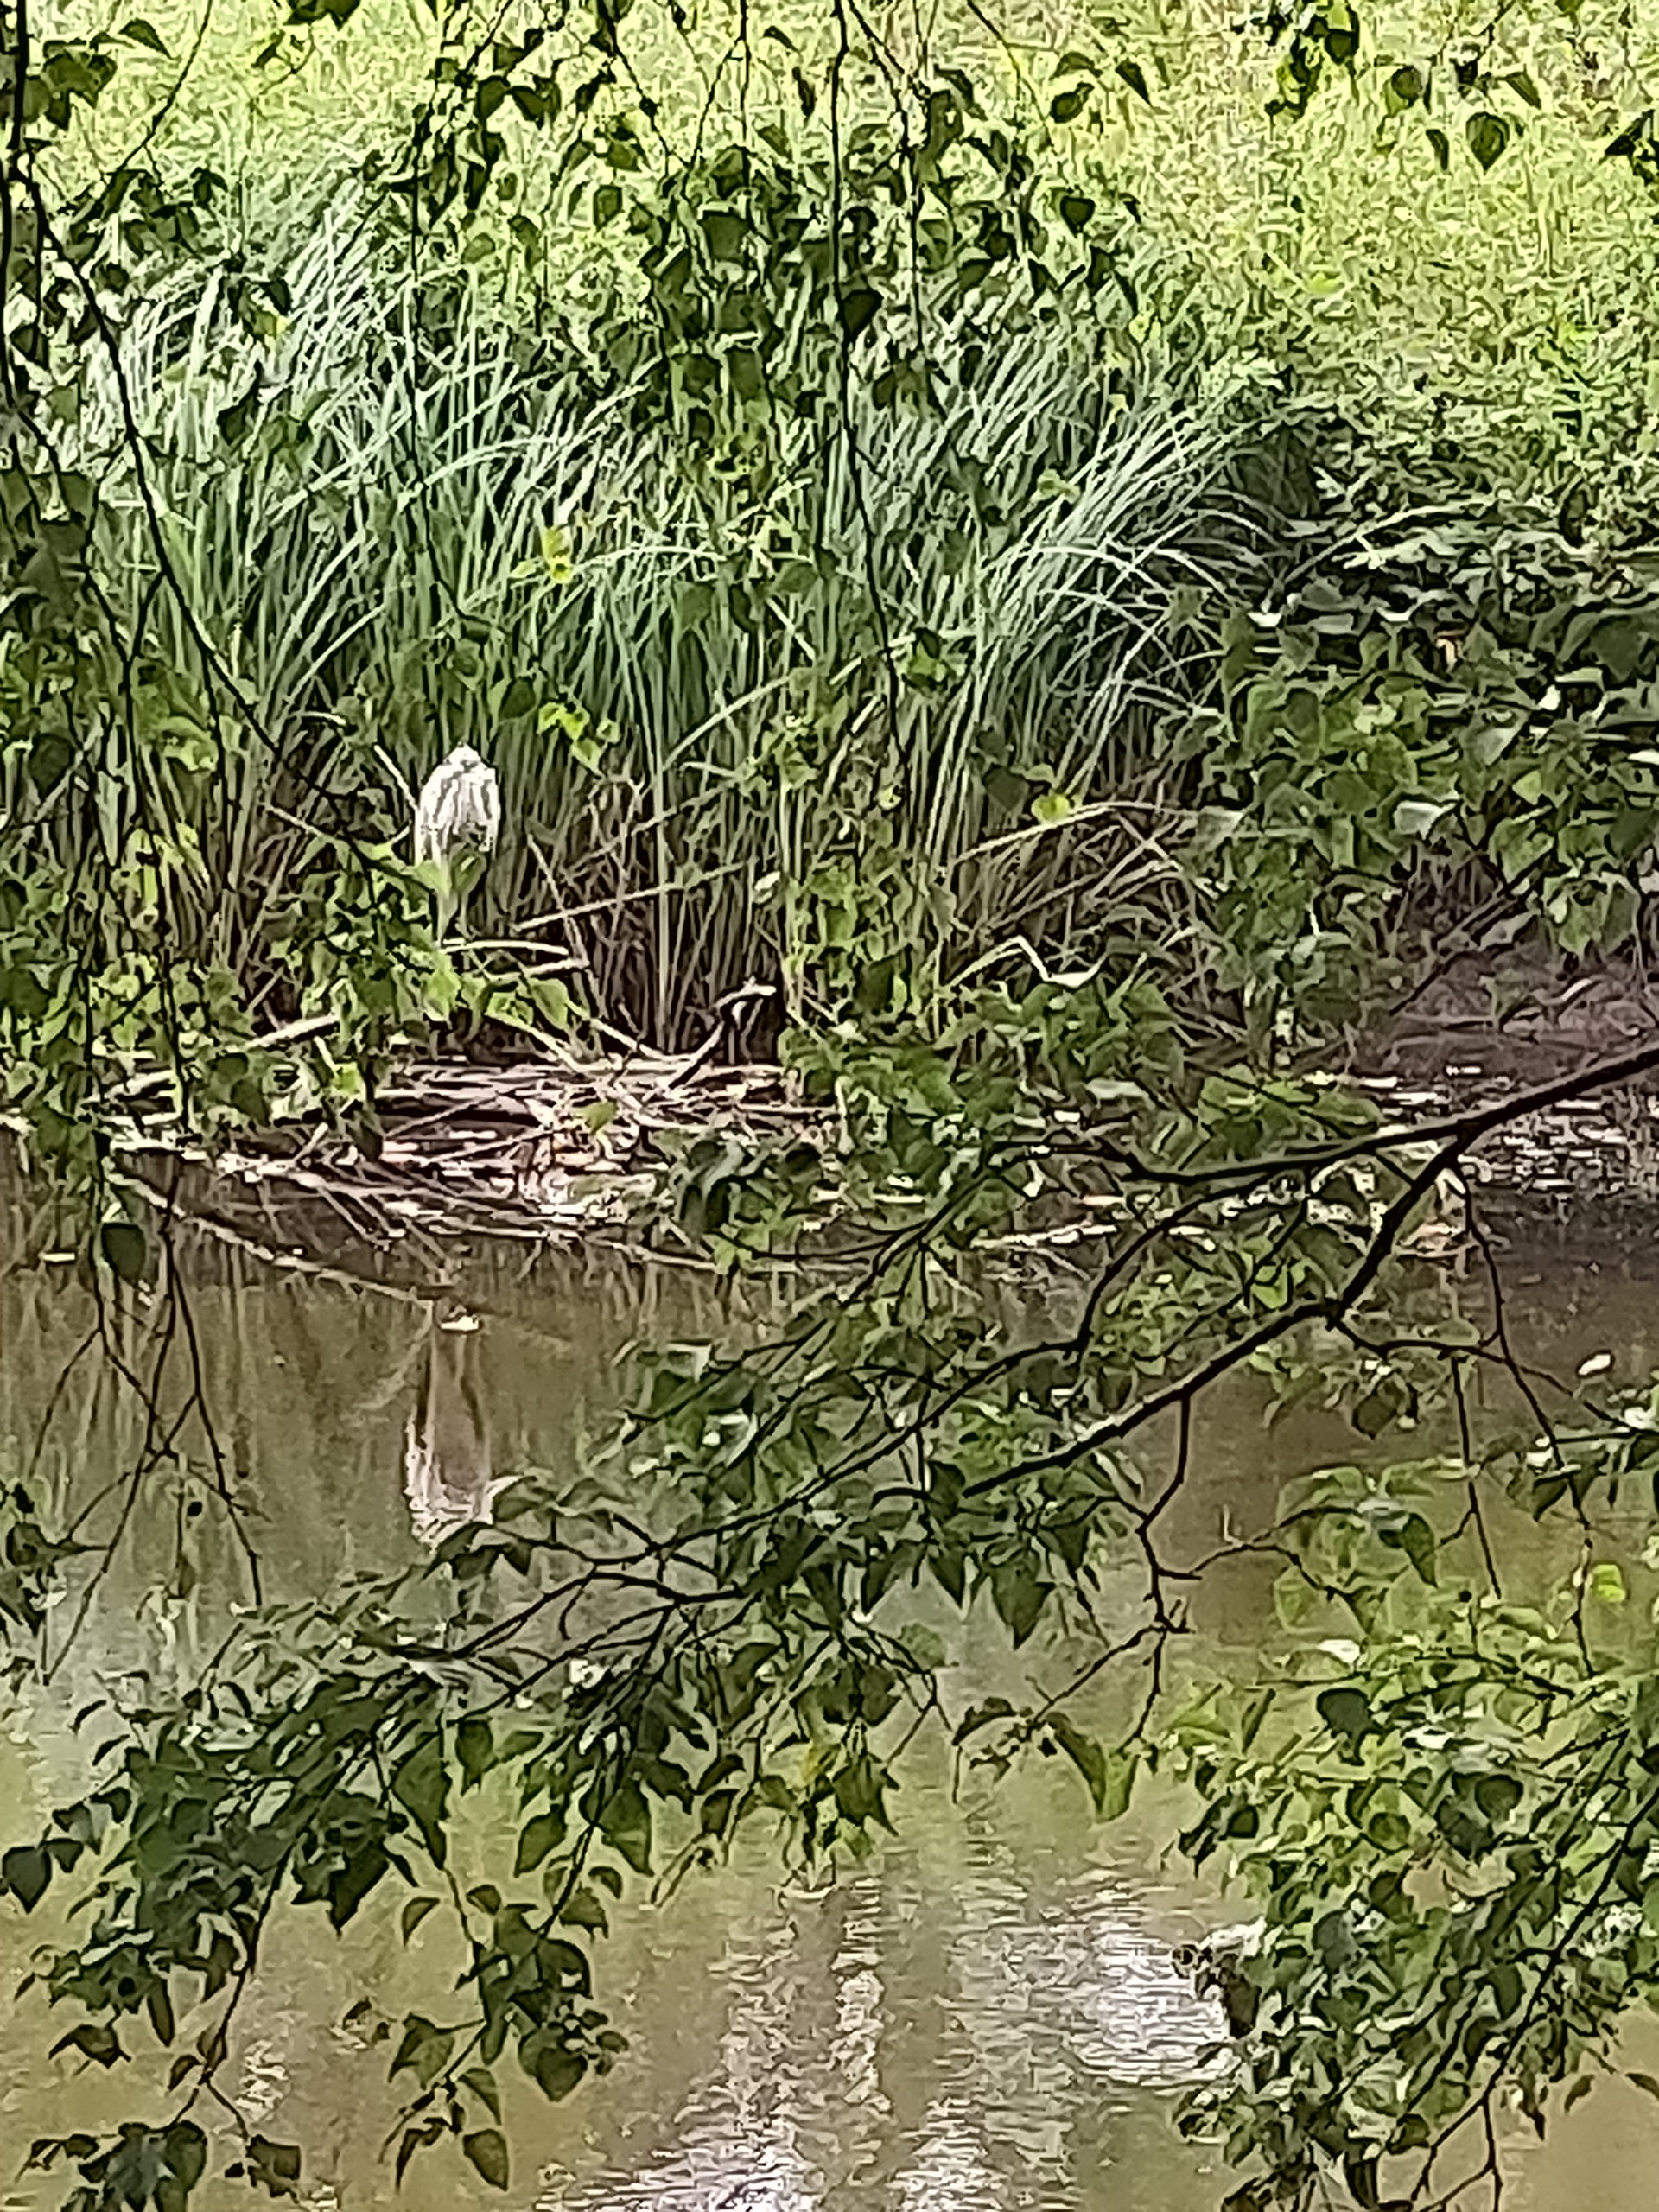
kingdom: Animalia
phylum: Chordata
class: Aves
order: Pelecaniformes
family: Ardeidae
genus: Ardea
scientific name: Ardea cinerea
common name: Fiskehejre
